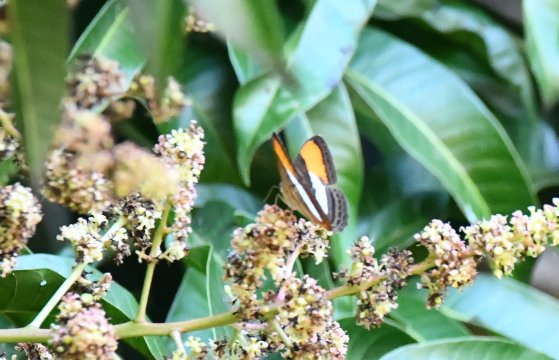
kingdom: Animalia
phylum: Arthropoda
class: Insecta
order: Lepidoptera
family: Nymphalidae
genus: Limenitis
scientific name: Limenitis cytherea
